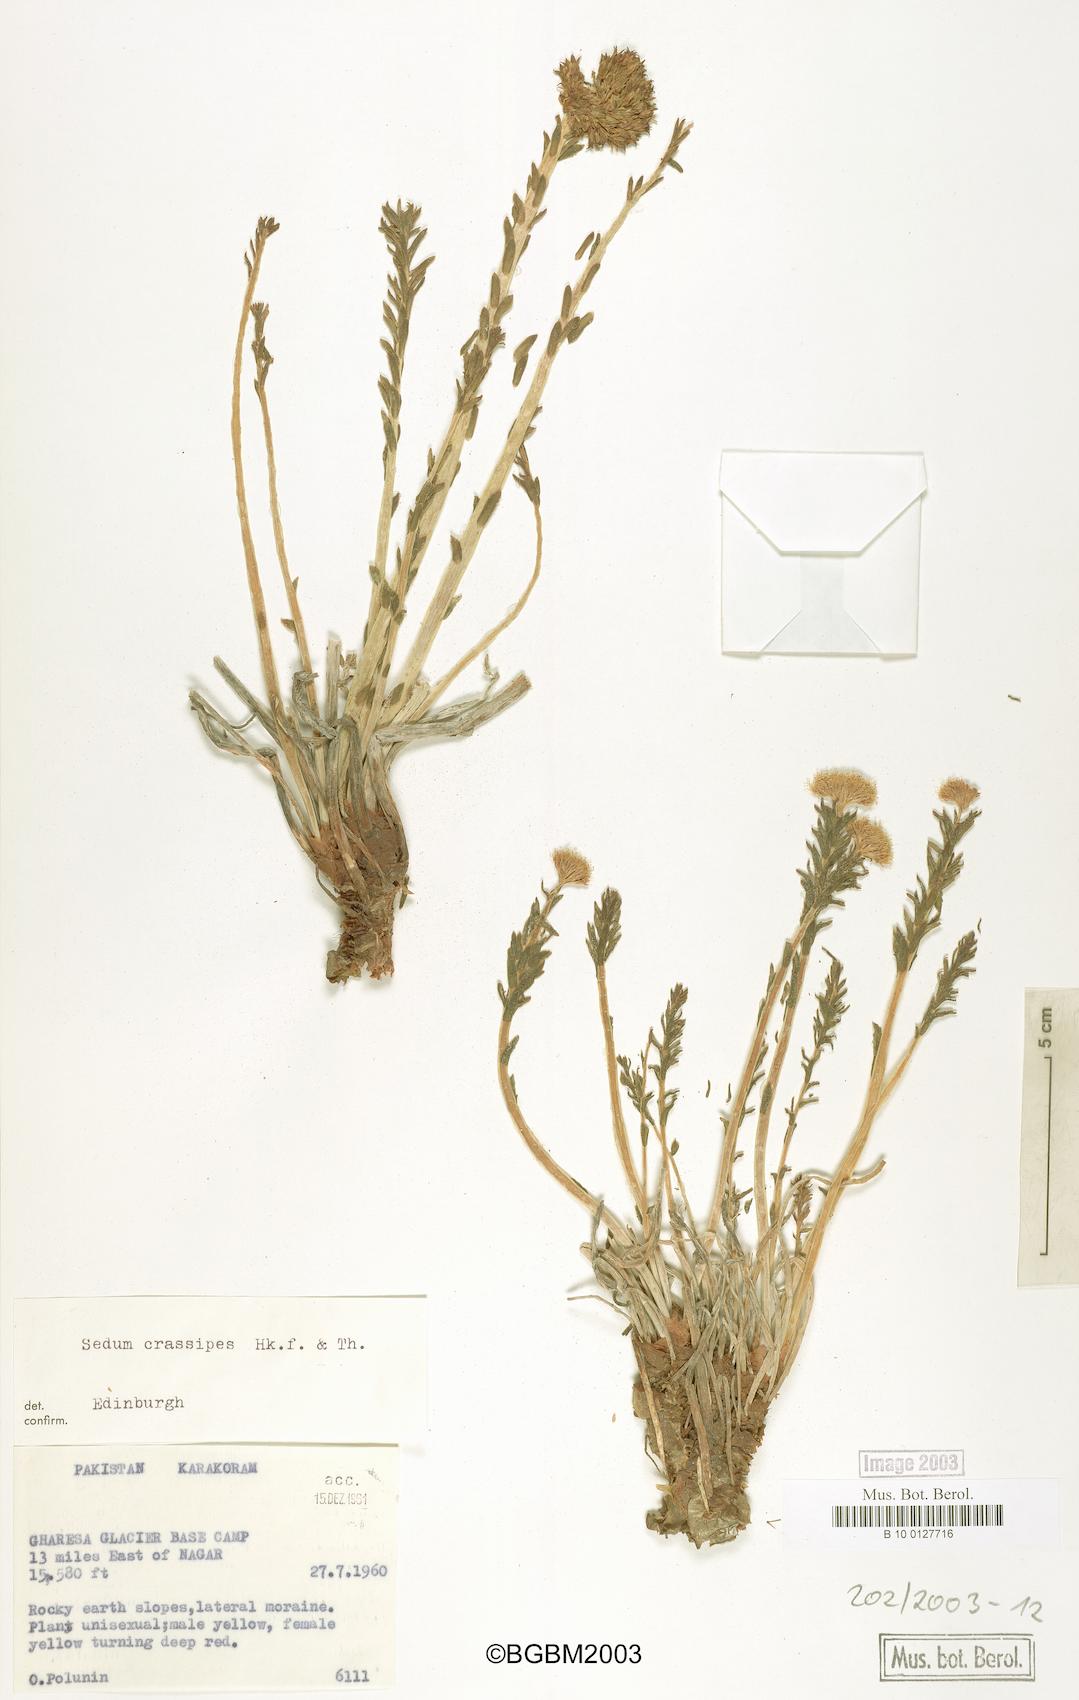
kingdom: Plantae
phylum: Tracheophyta
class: Magnoliopsida
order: Saxifragales
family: Crassulaceae
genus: Rhodiola
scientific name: Rhodiola wallichiana
